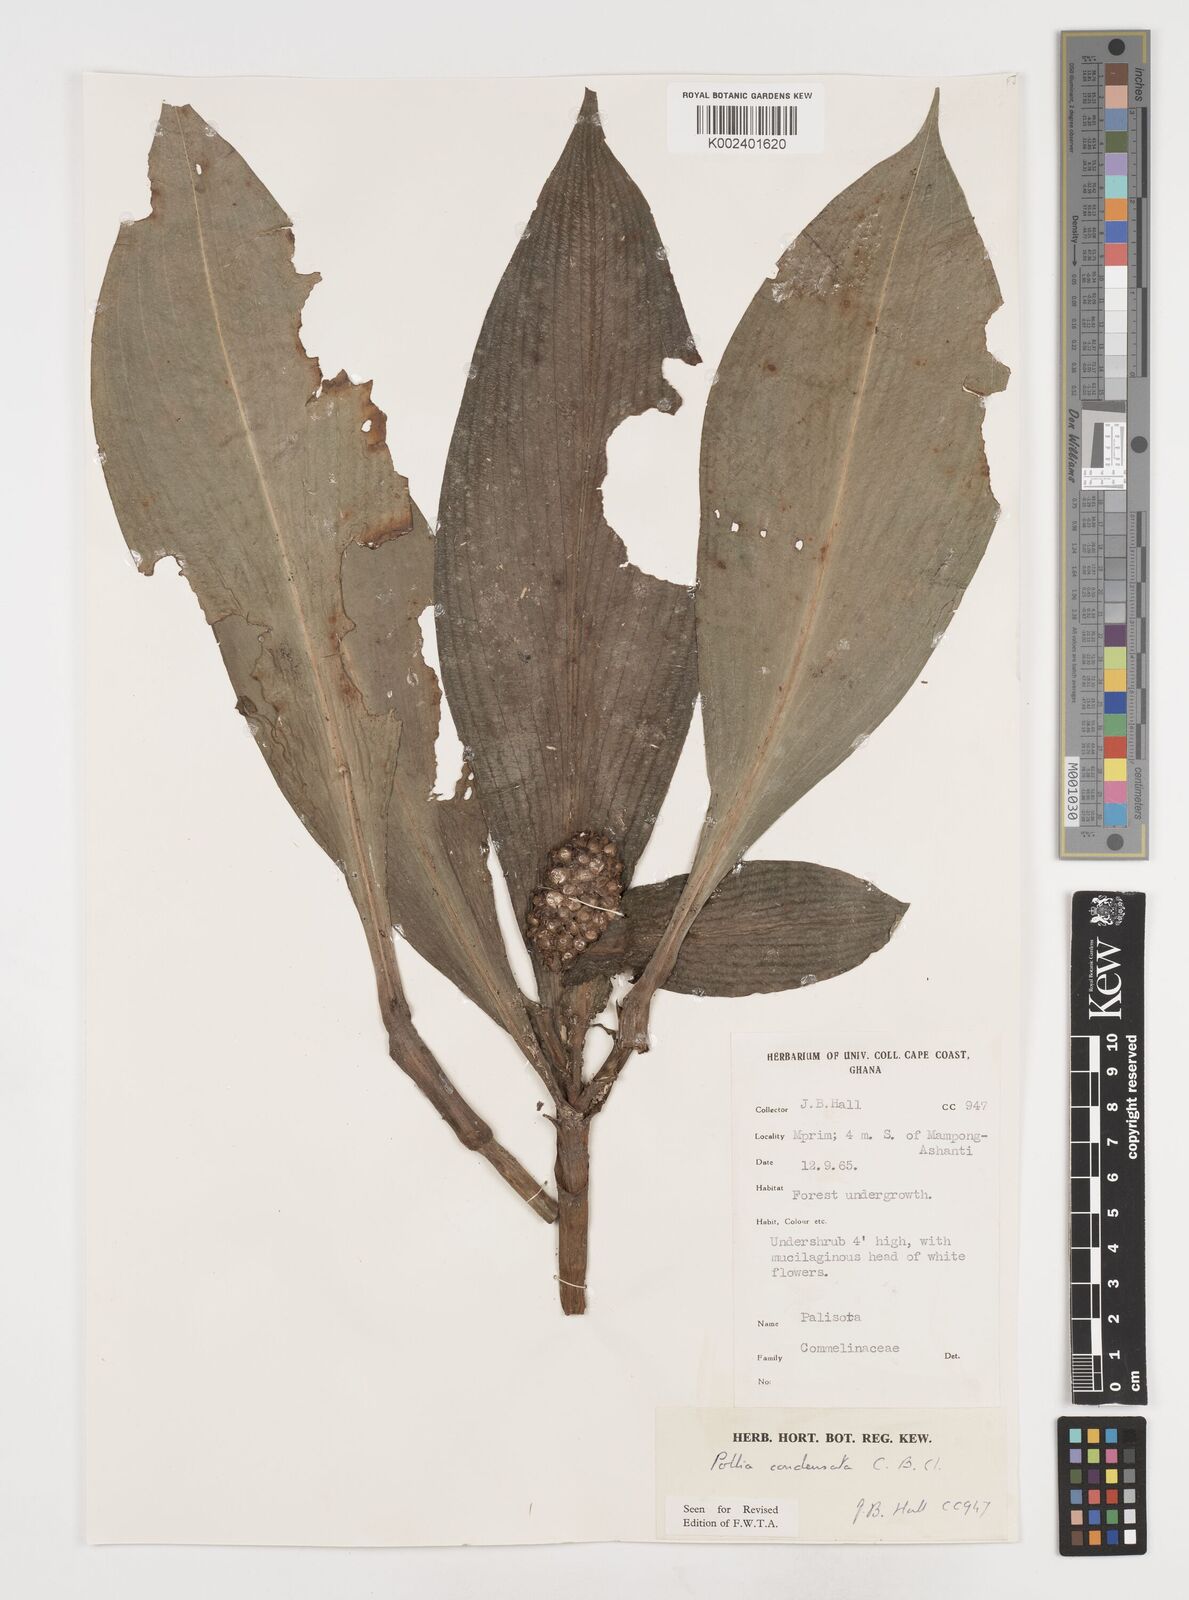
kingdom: Plantae
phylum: Tracheophyta
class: Liliopsida
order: Commelinales
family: Commelinaceae
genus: Pollia
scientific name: Pollia condensata
